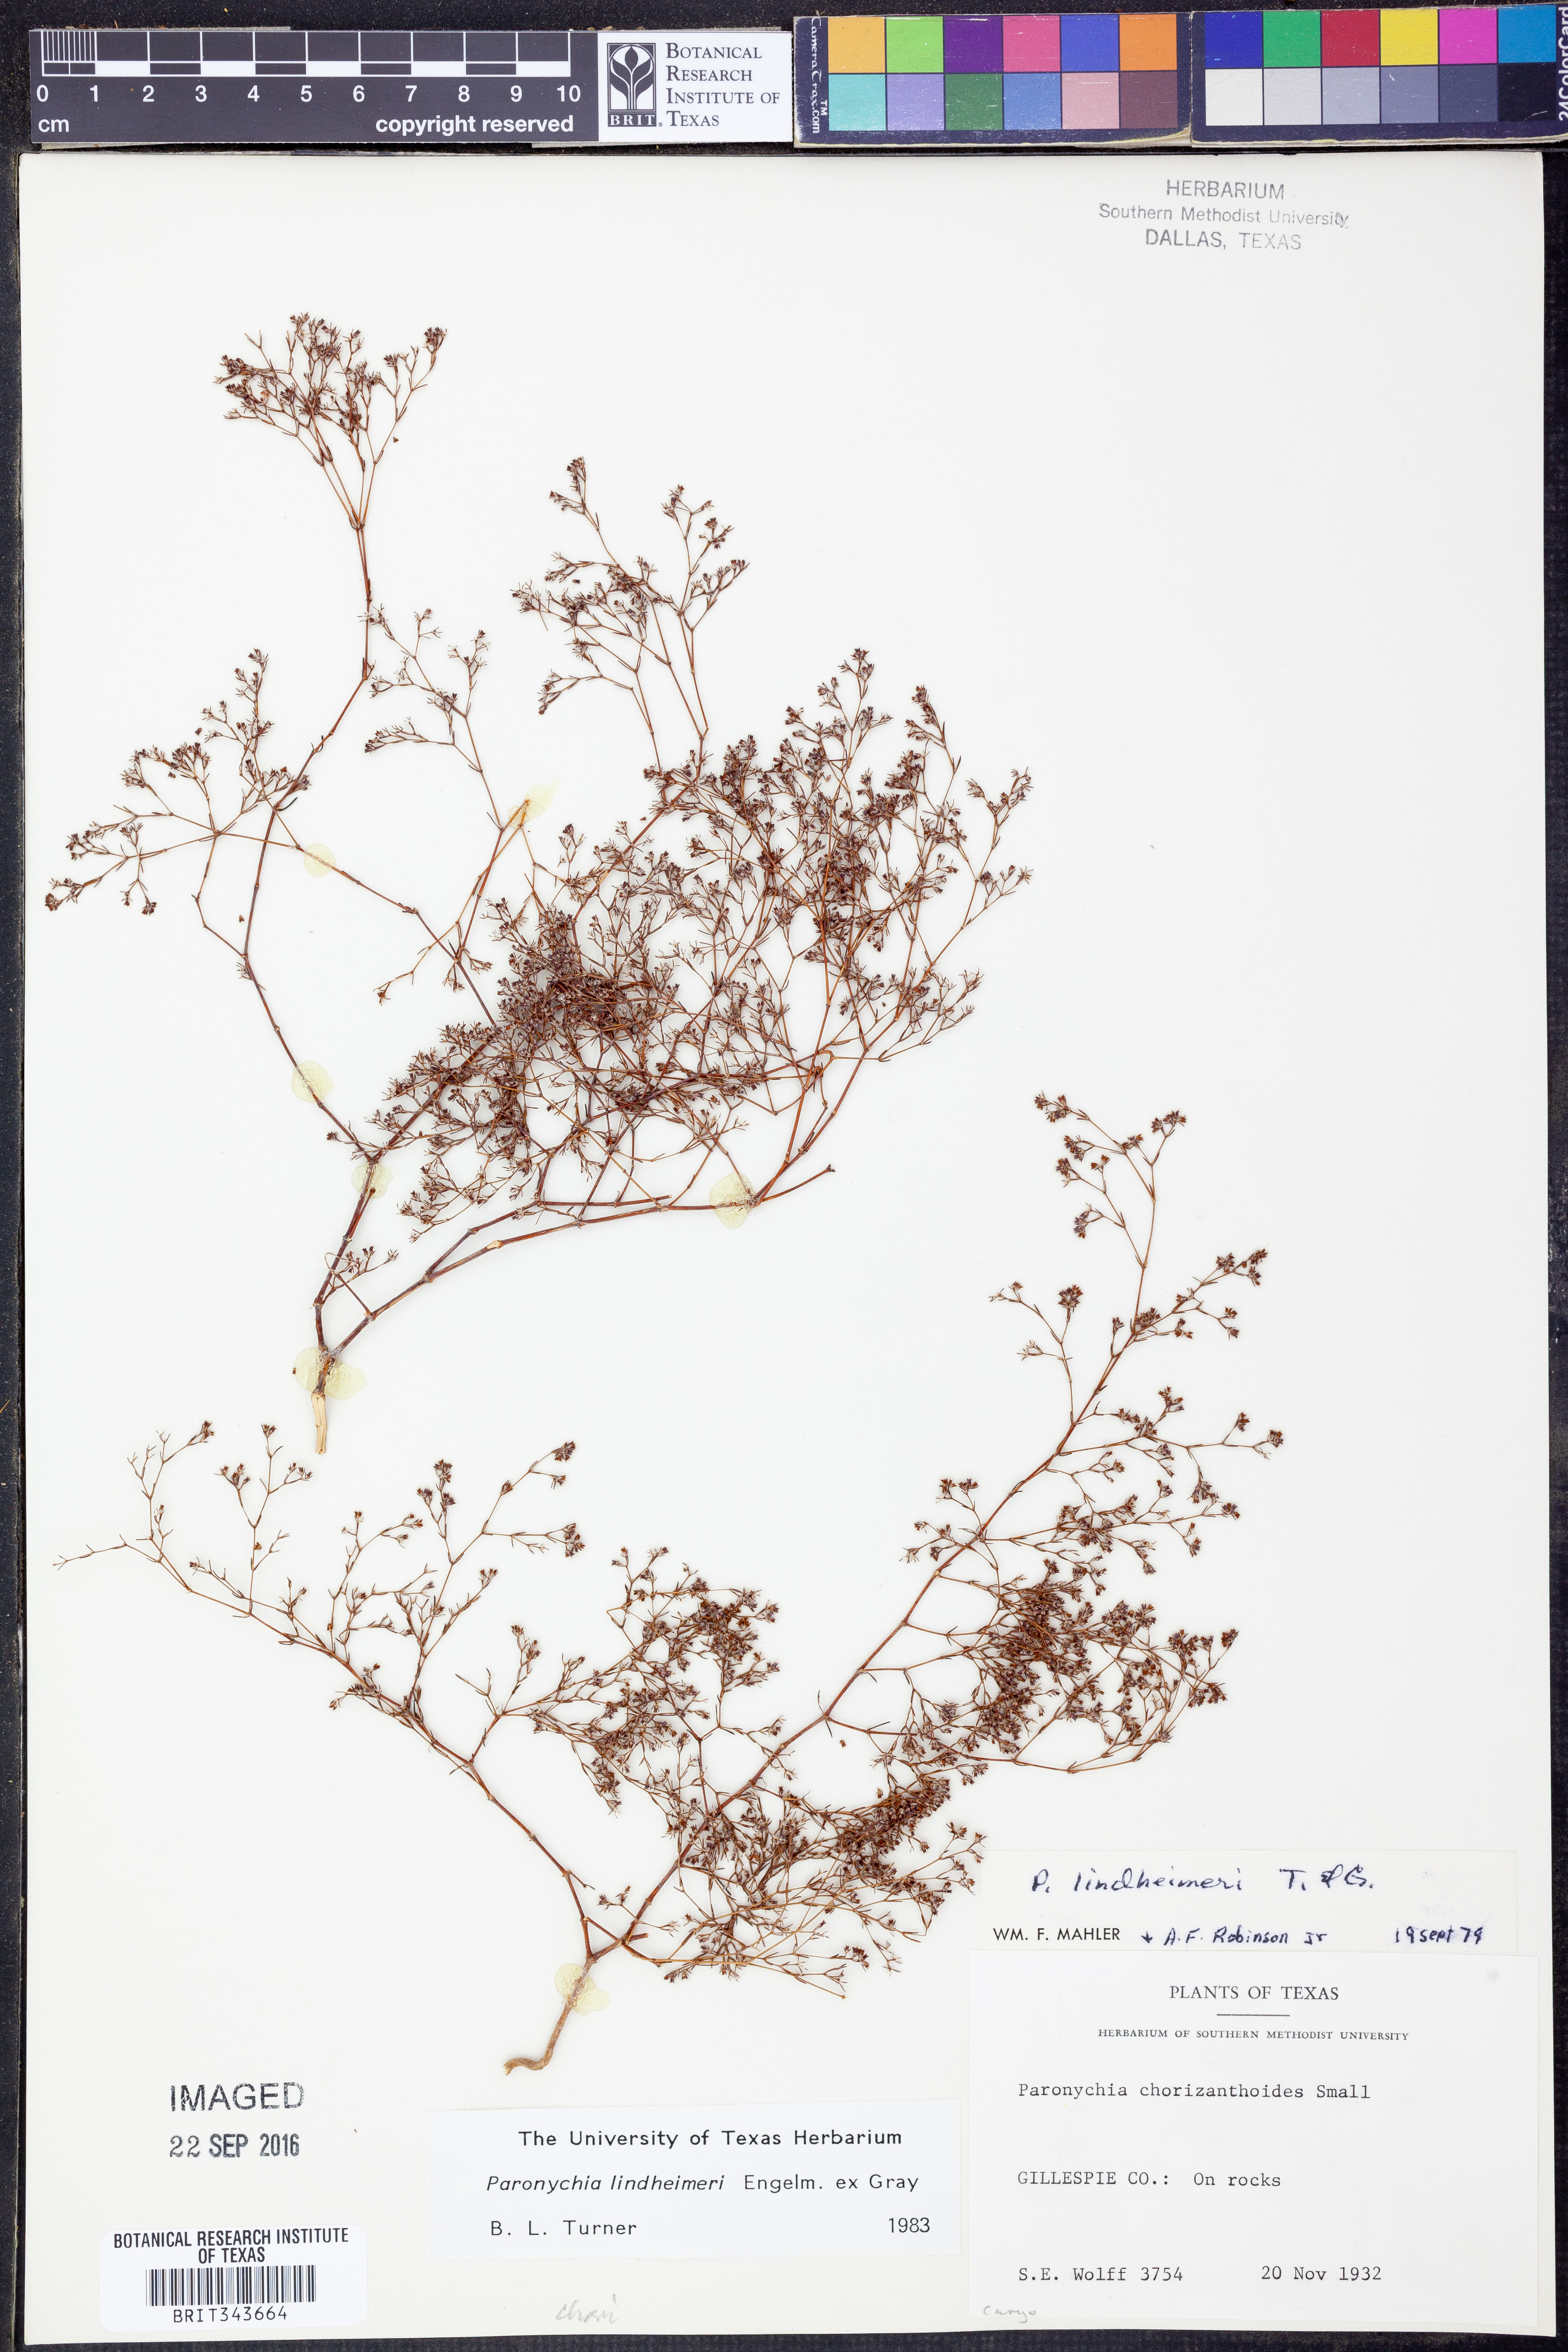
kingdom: Plantae
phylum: Tracheophyta
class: Magnoliopsida
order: Caryophyllales
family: Caryophyllaceae
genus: Paronychia
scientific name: Paronychia lindheimeri
